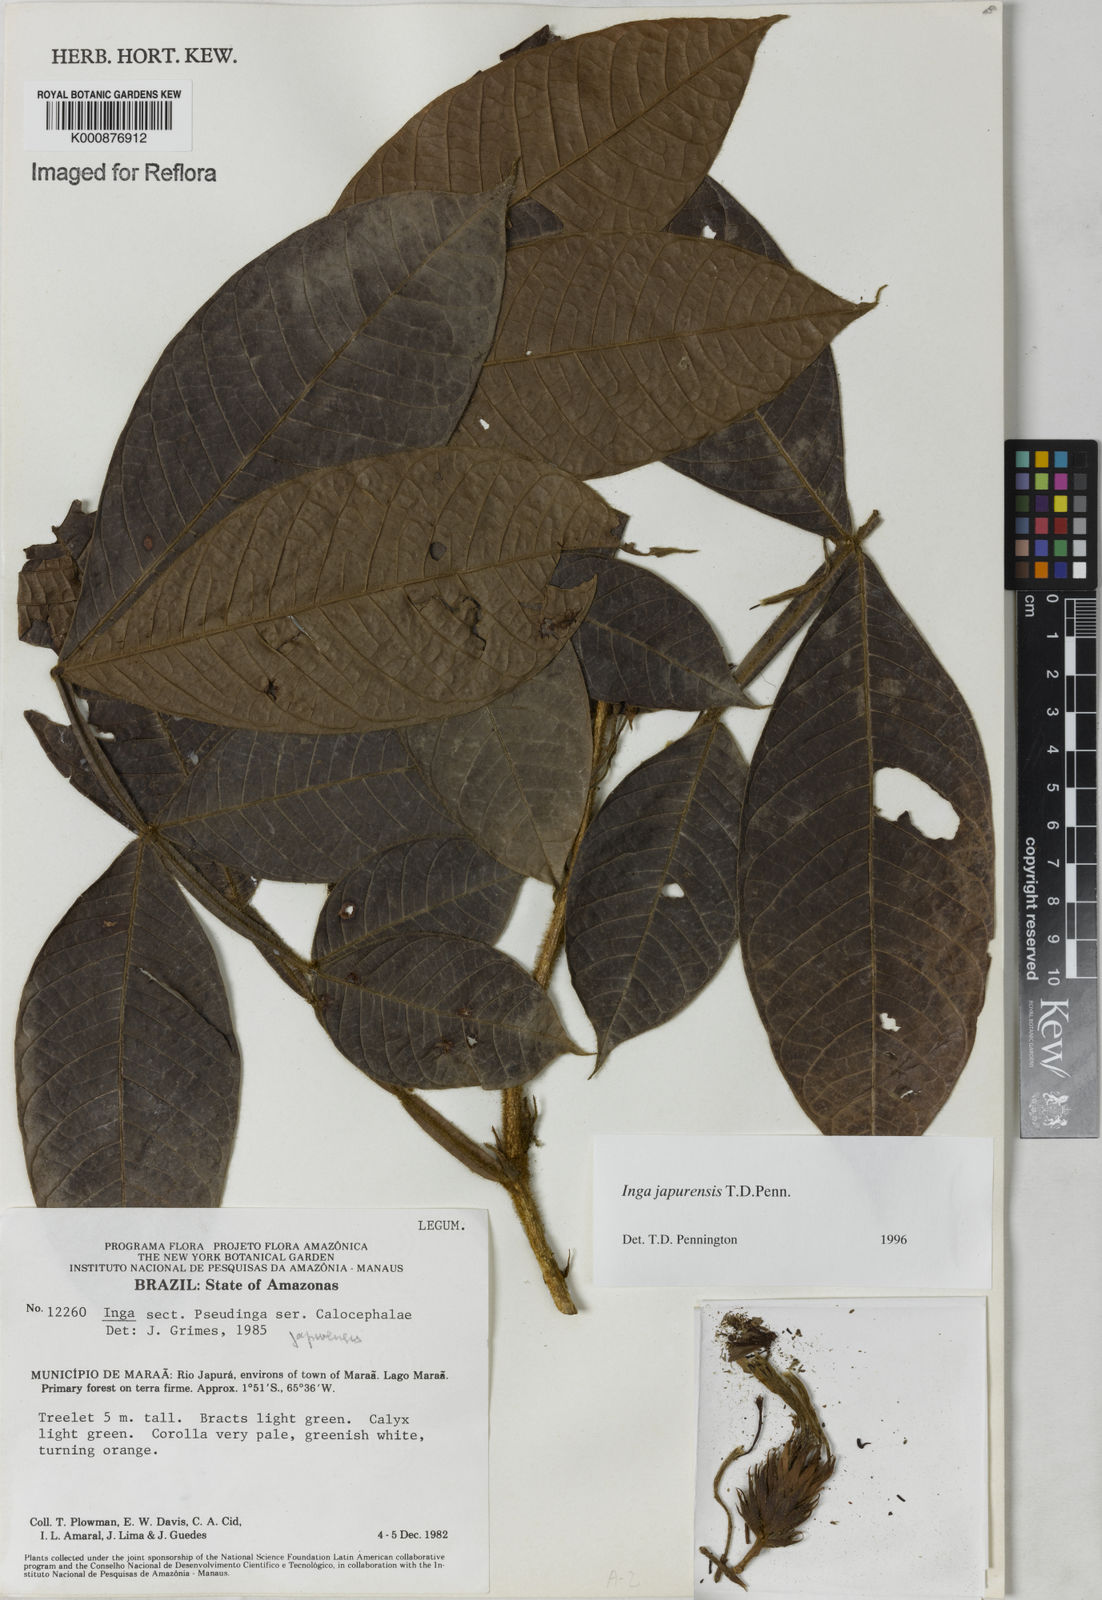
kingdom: Plantae
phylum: Tracheophyta
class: Magnoliopsida
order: Fabales
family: Fabaceae
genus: Inga
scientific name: Inga japurensis
